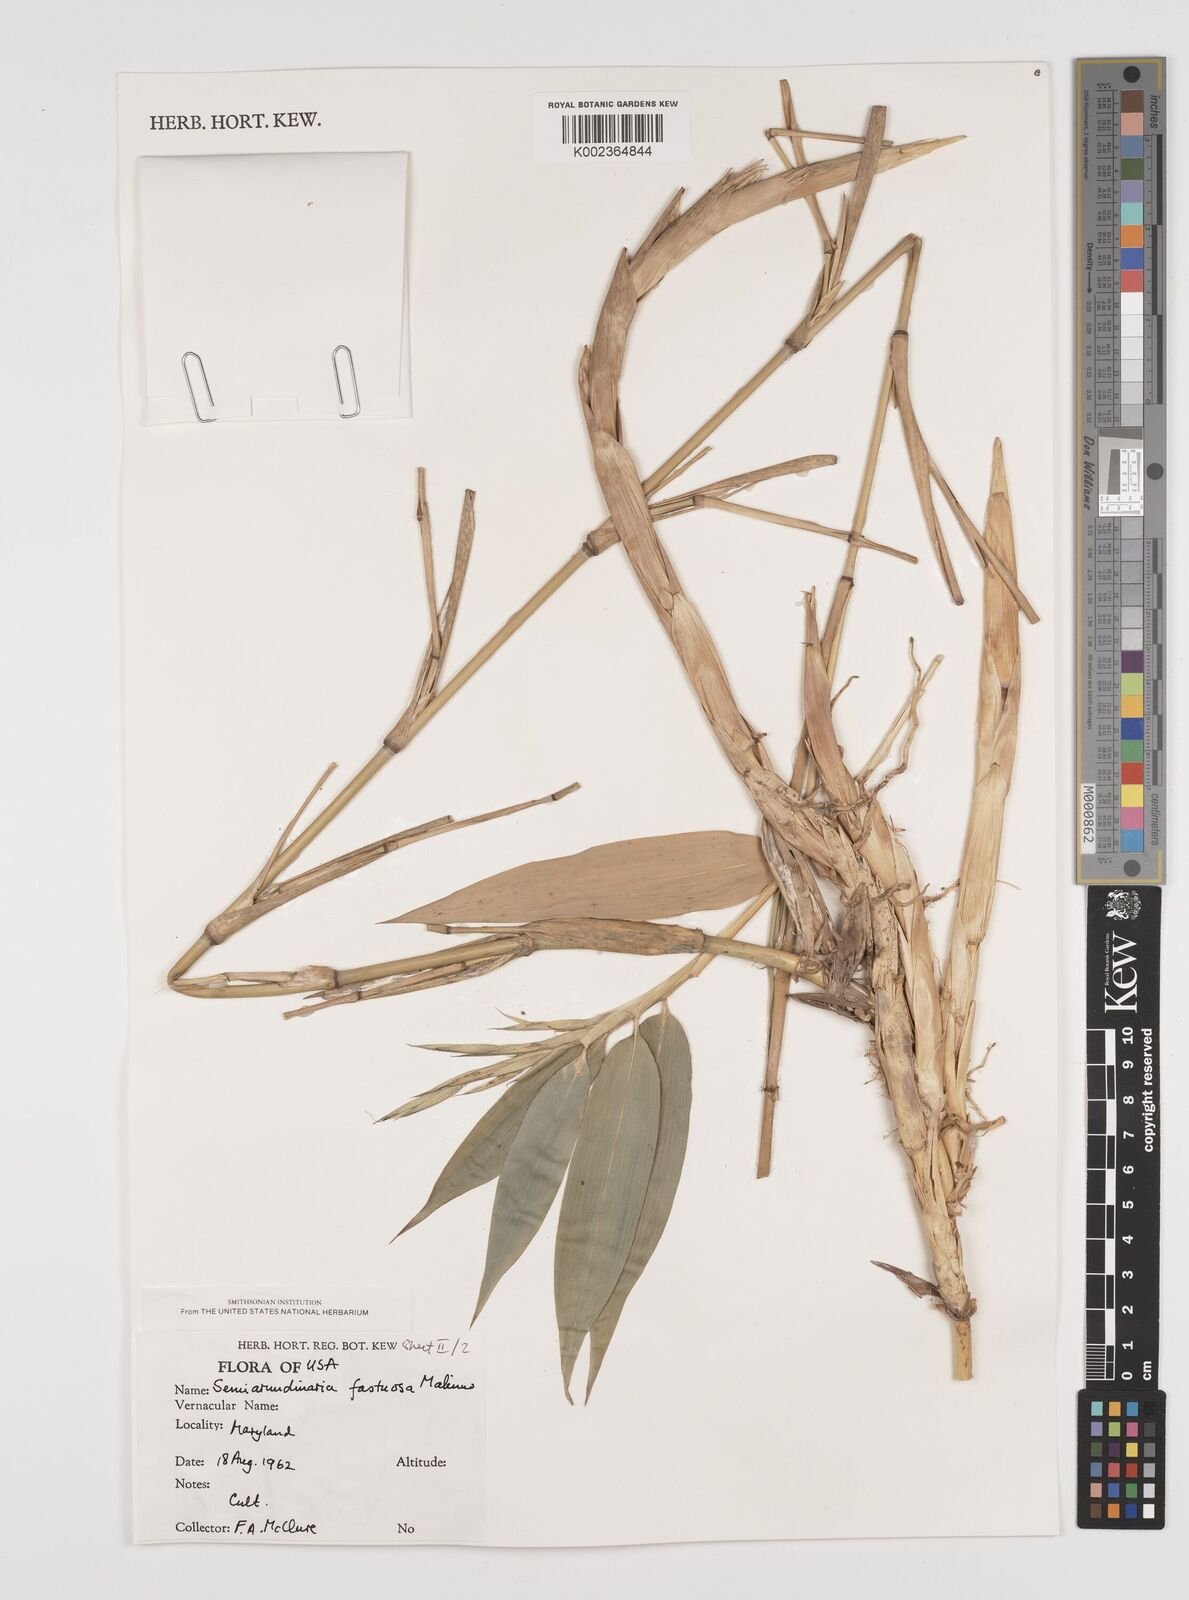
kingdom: Plantae
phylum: Tracheophyta
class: Liliopsida
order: Poales
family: Poaceae
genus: Semiarundinaria
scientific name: Semiarundinaria
